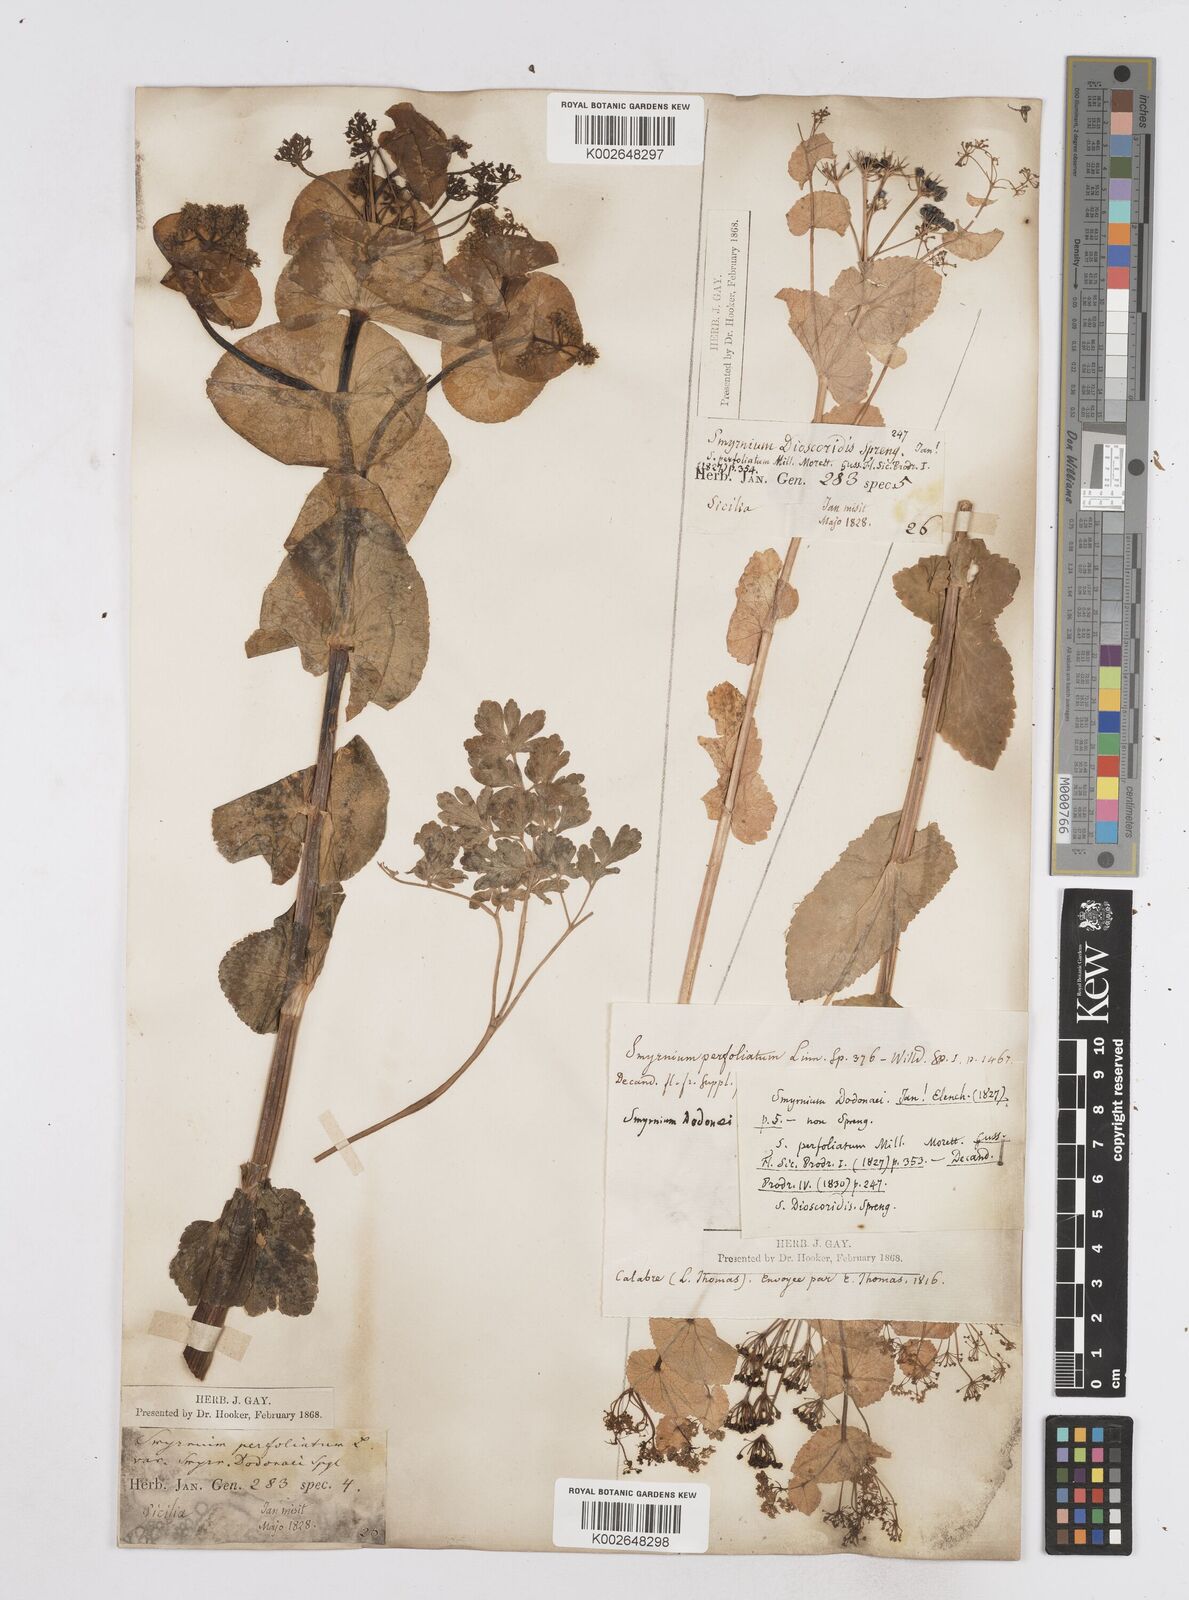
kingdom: Plantae
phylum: Tracheophyta
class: Magnoliopsida
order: Apiales
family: Apiaceae
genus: Smyrnium
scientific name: Smyrnium perfoliatum
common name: Perfoliate alexanders
